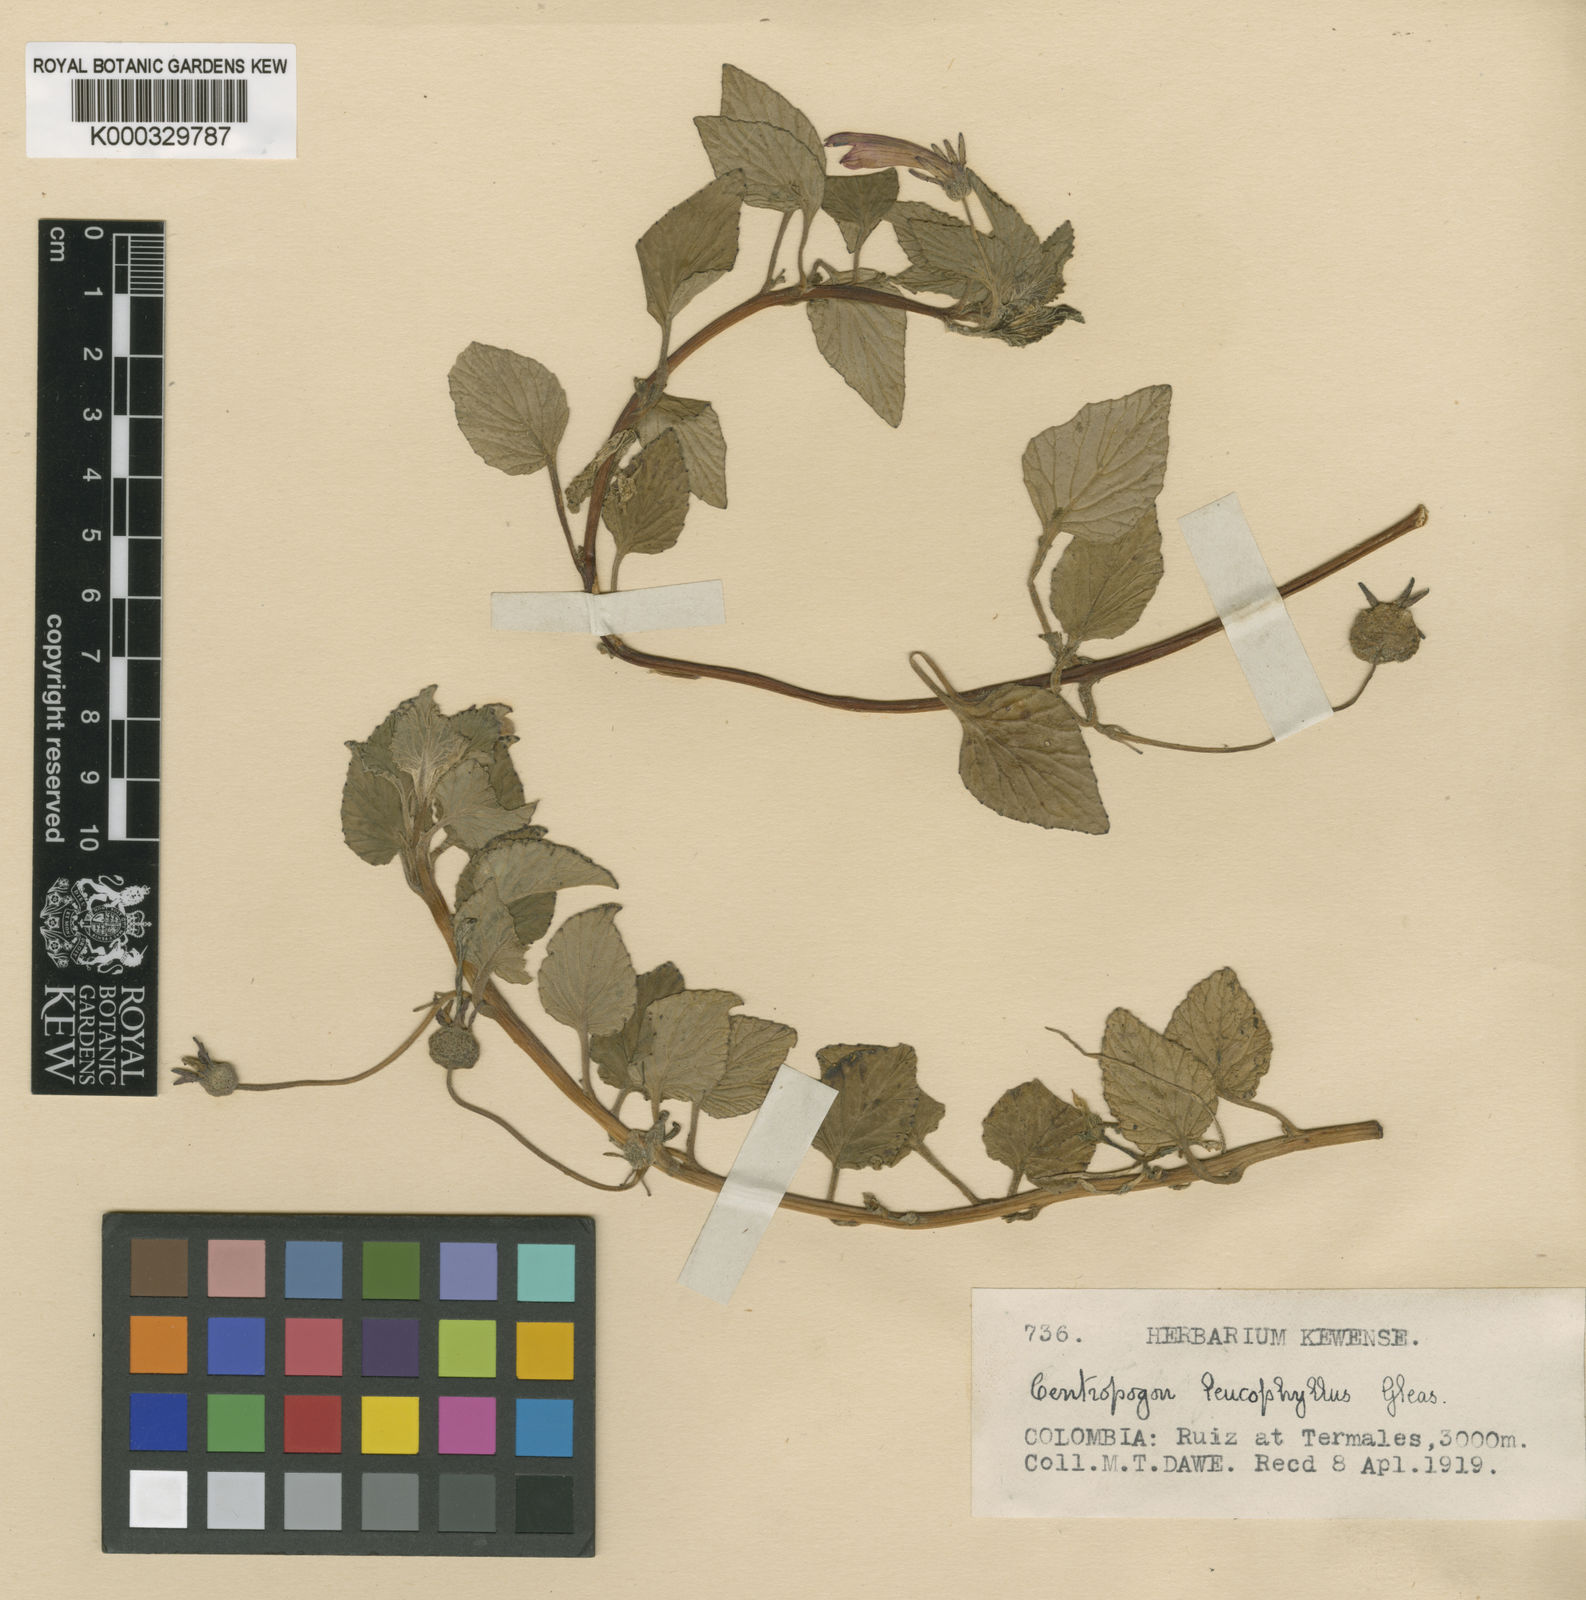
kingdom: Plantae
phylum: Tracheophyta
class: Magnoliopsida
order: Asterales
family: Campanulaceae
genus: Centropogon
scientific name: Centropogon leucophyllus
